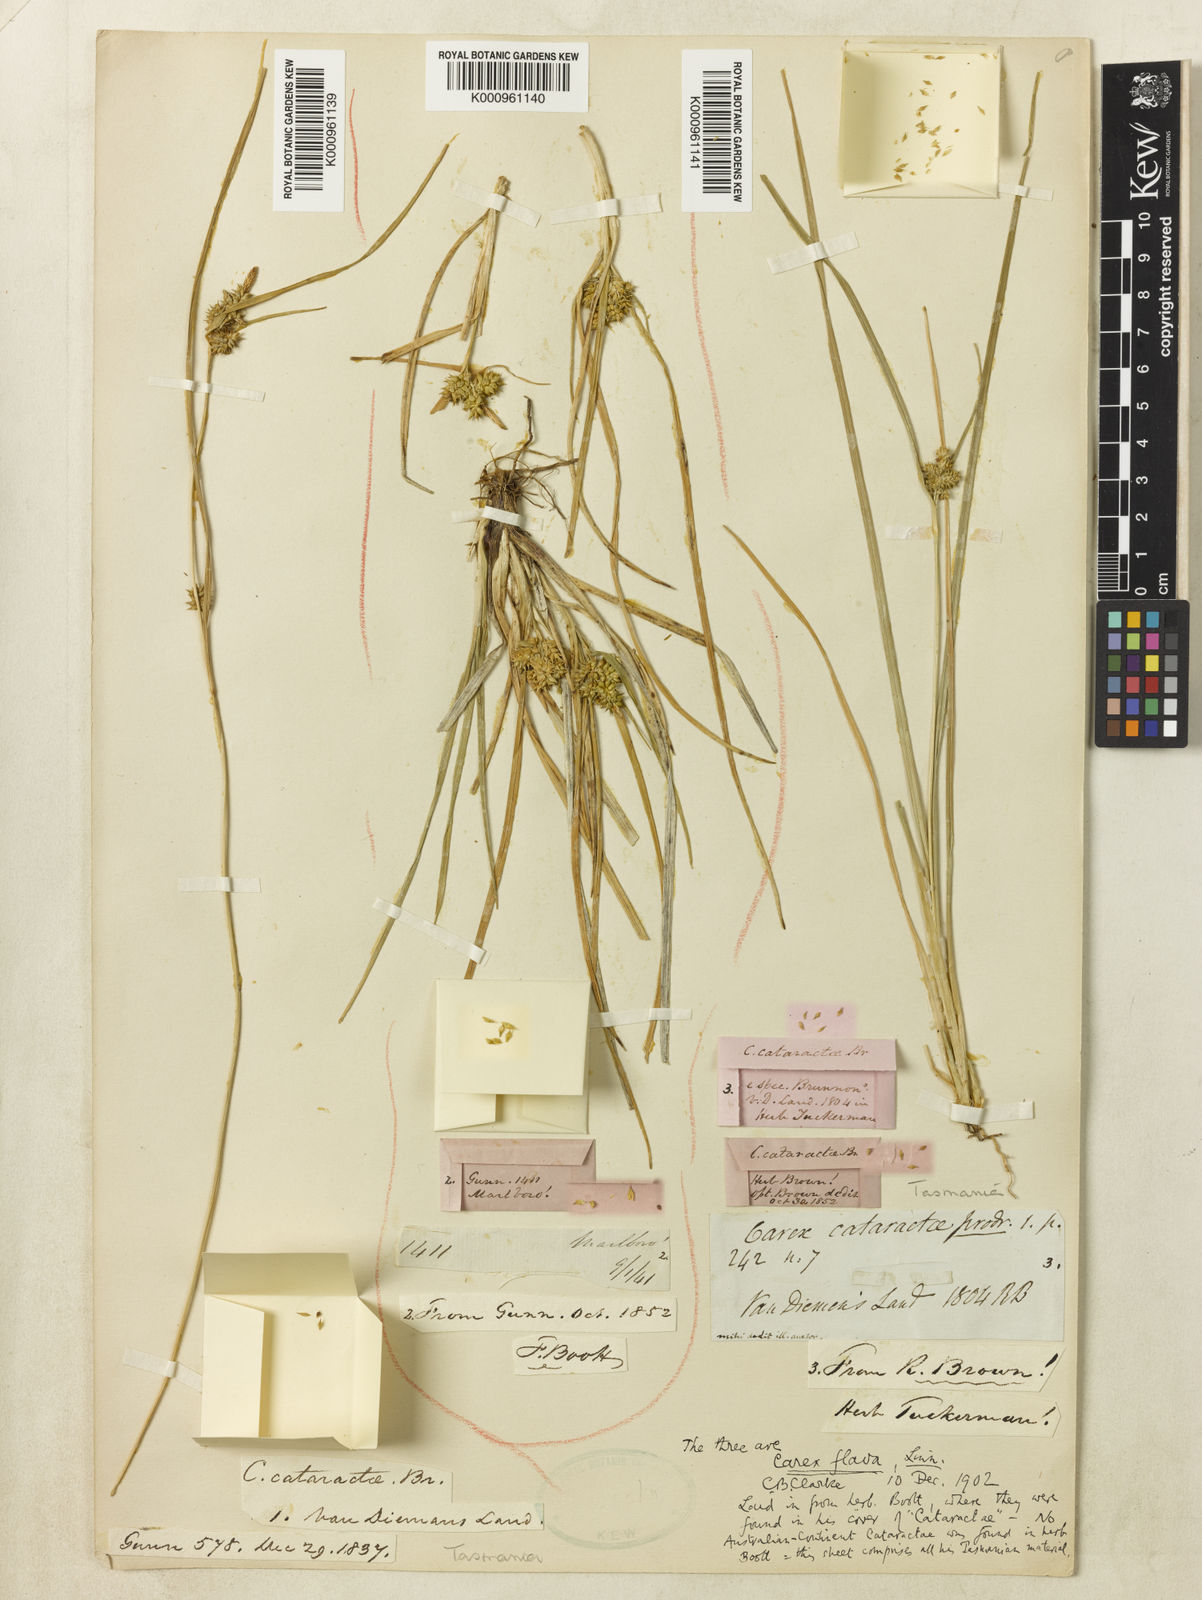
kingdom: Plantae
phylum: Tracheophyta
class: Liliopsida
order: Poales
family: Cyperaceae
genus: Carex
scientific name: Carex cataractae
